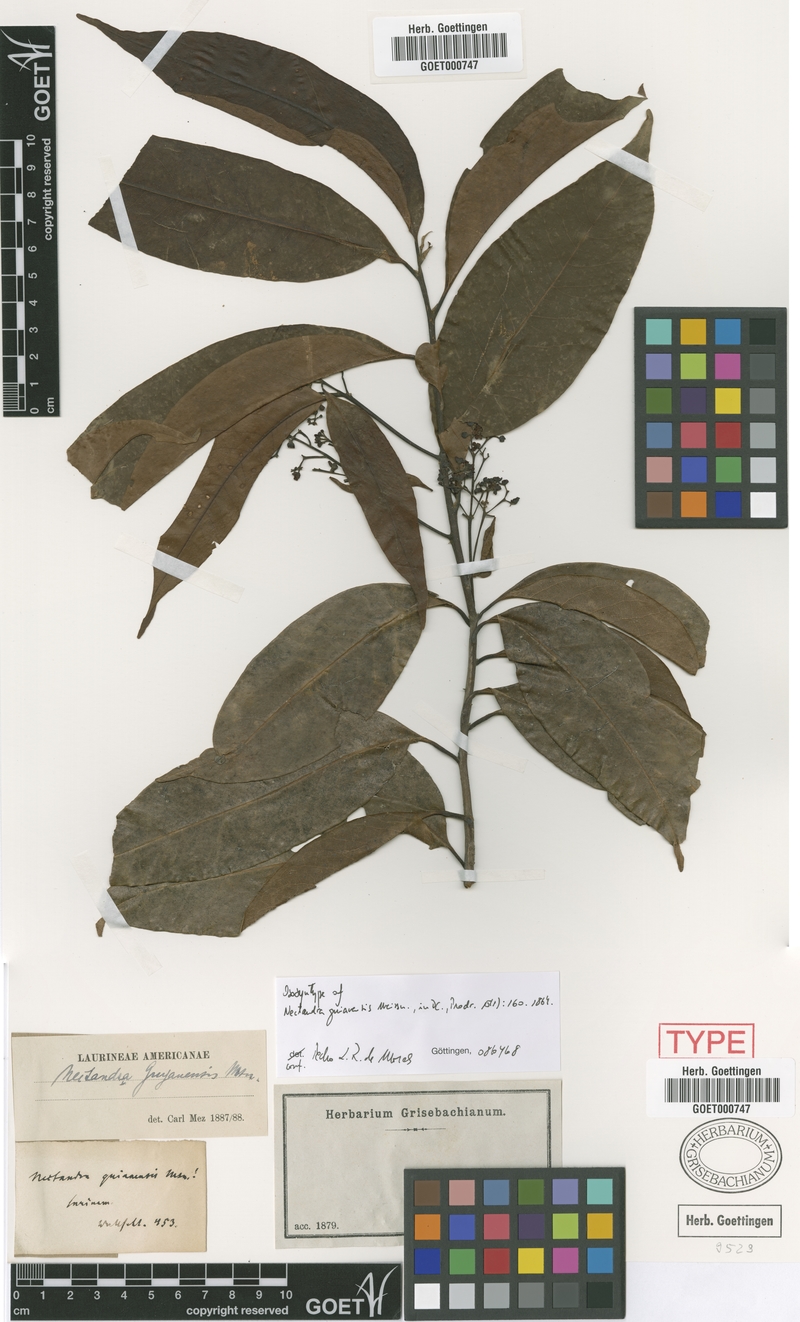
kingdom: Plantae
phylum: Tracheophyta
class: Magnoliopsida
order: Laurales
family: Lauraceae
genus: Nectandra
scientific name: Nectandra sanguinea
